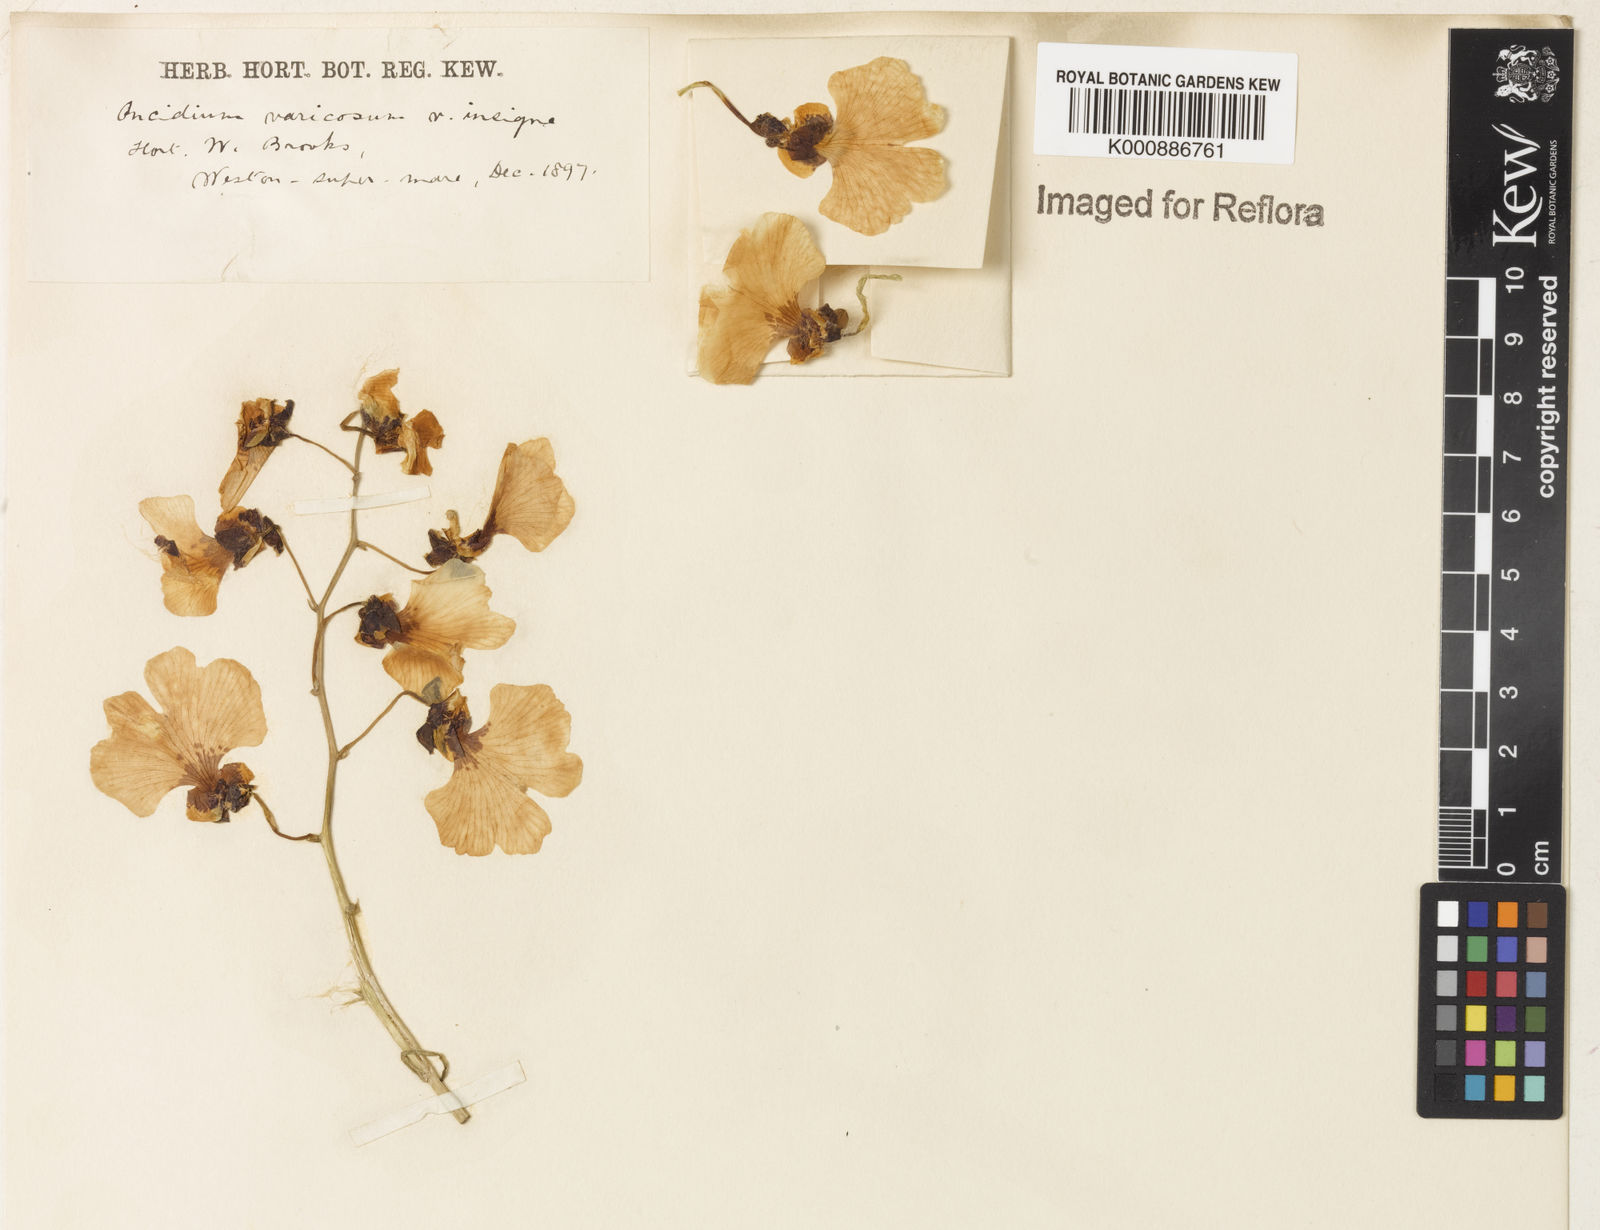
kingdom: Plantae
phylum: Tracheophyta
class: Liliopsida
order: Asparagales
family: Orchidaceae
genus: Gomesa
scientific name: Gomesa varicosa
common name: Dancing ladies
